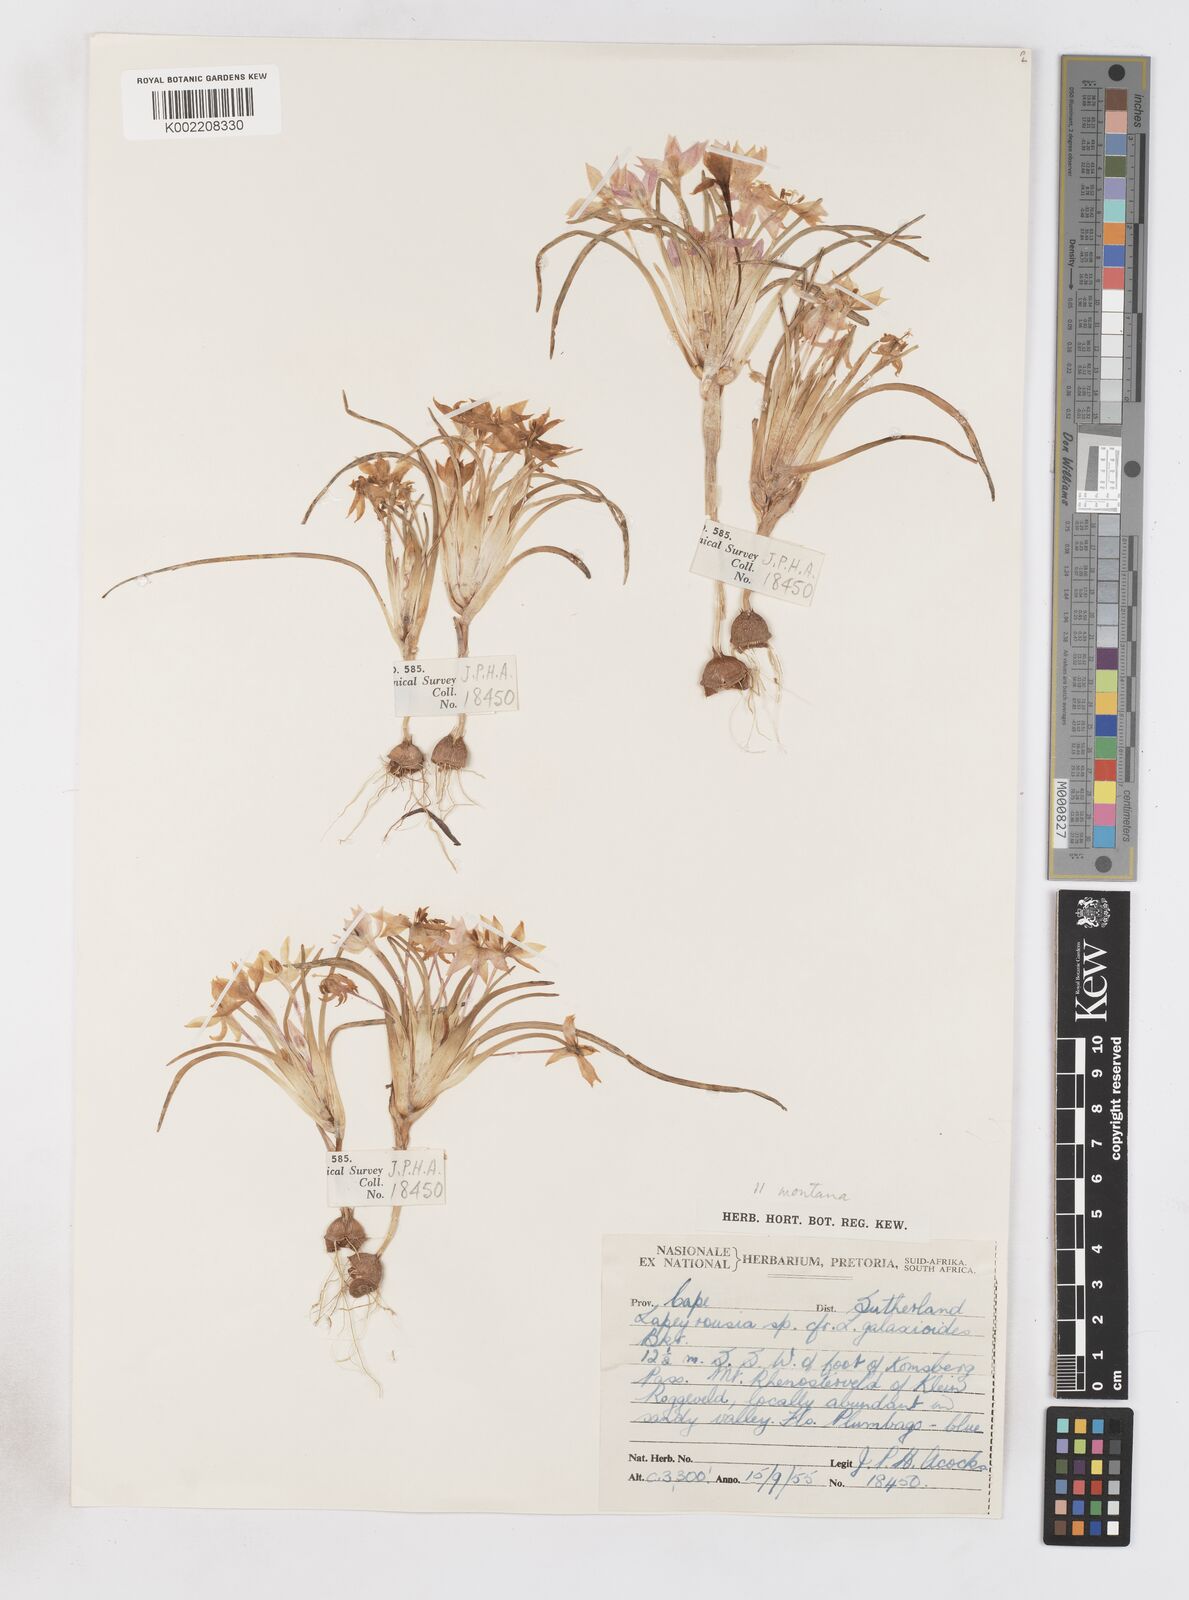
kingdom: Plantae
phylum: Tracheophyta
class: Liliopsida
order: Asparagales
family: Iridaceae
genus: Lapeirousia
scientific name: Lapeirousia montana
